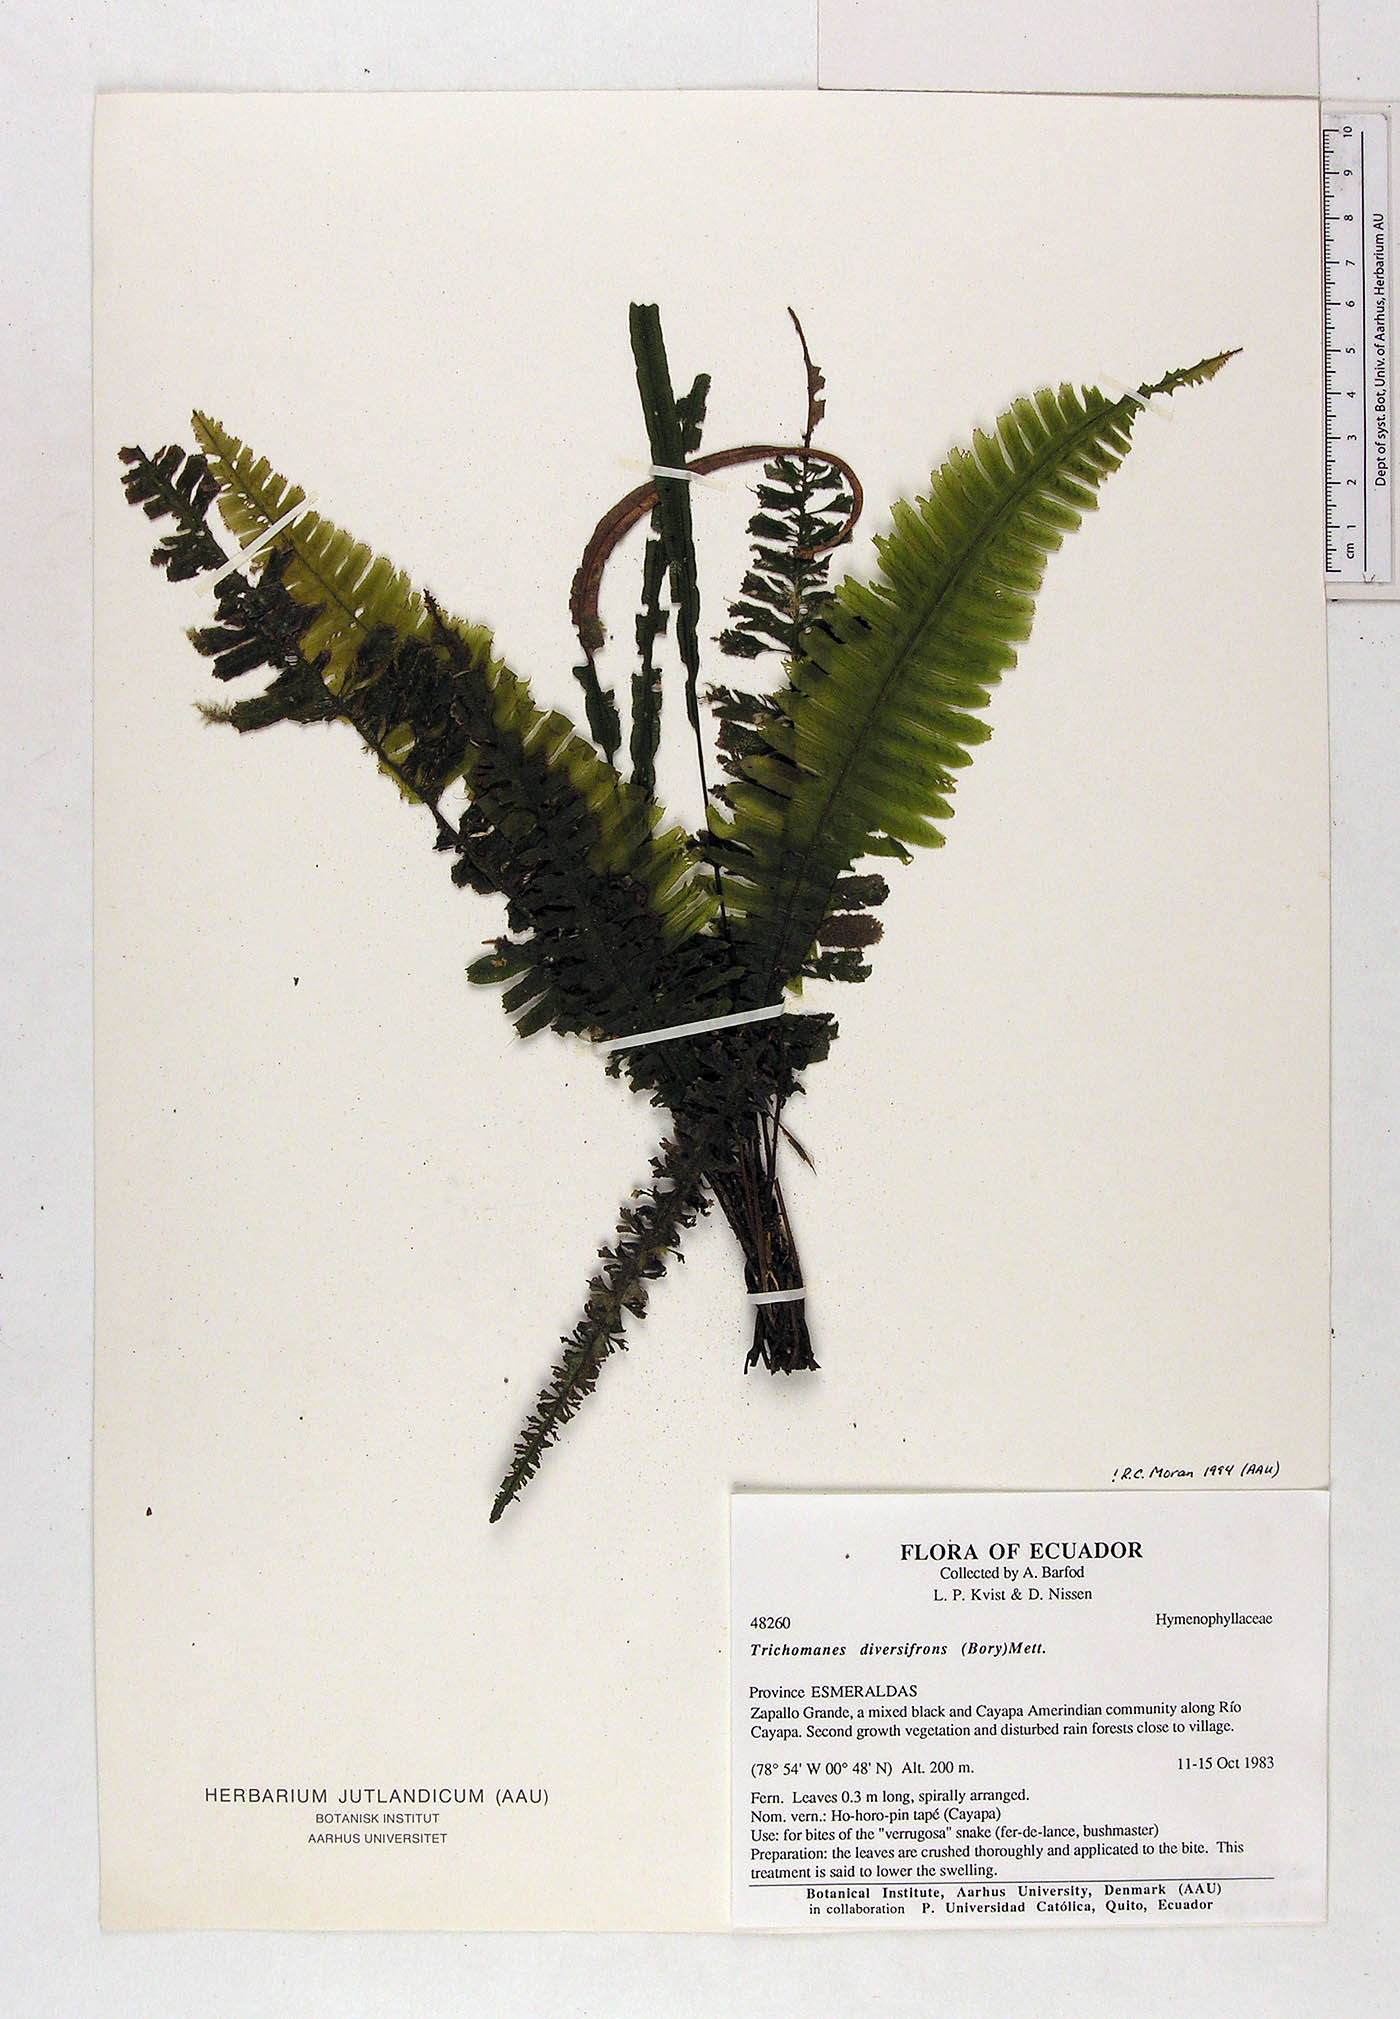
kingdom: Plantae
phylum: Tracheophyta
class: Polypodiopsida
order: Hymenophyllales
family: Hymenophyllaceae
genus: Trichomanes
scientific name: Trichomanes diversifrons
